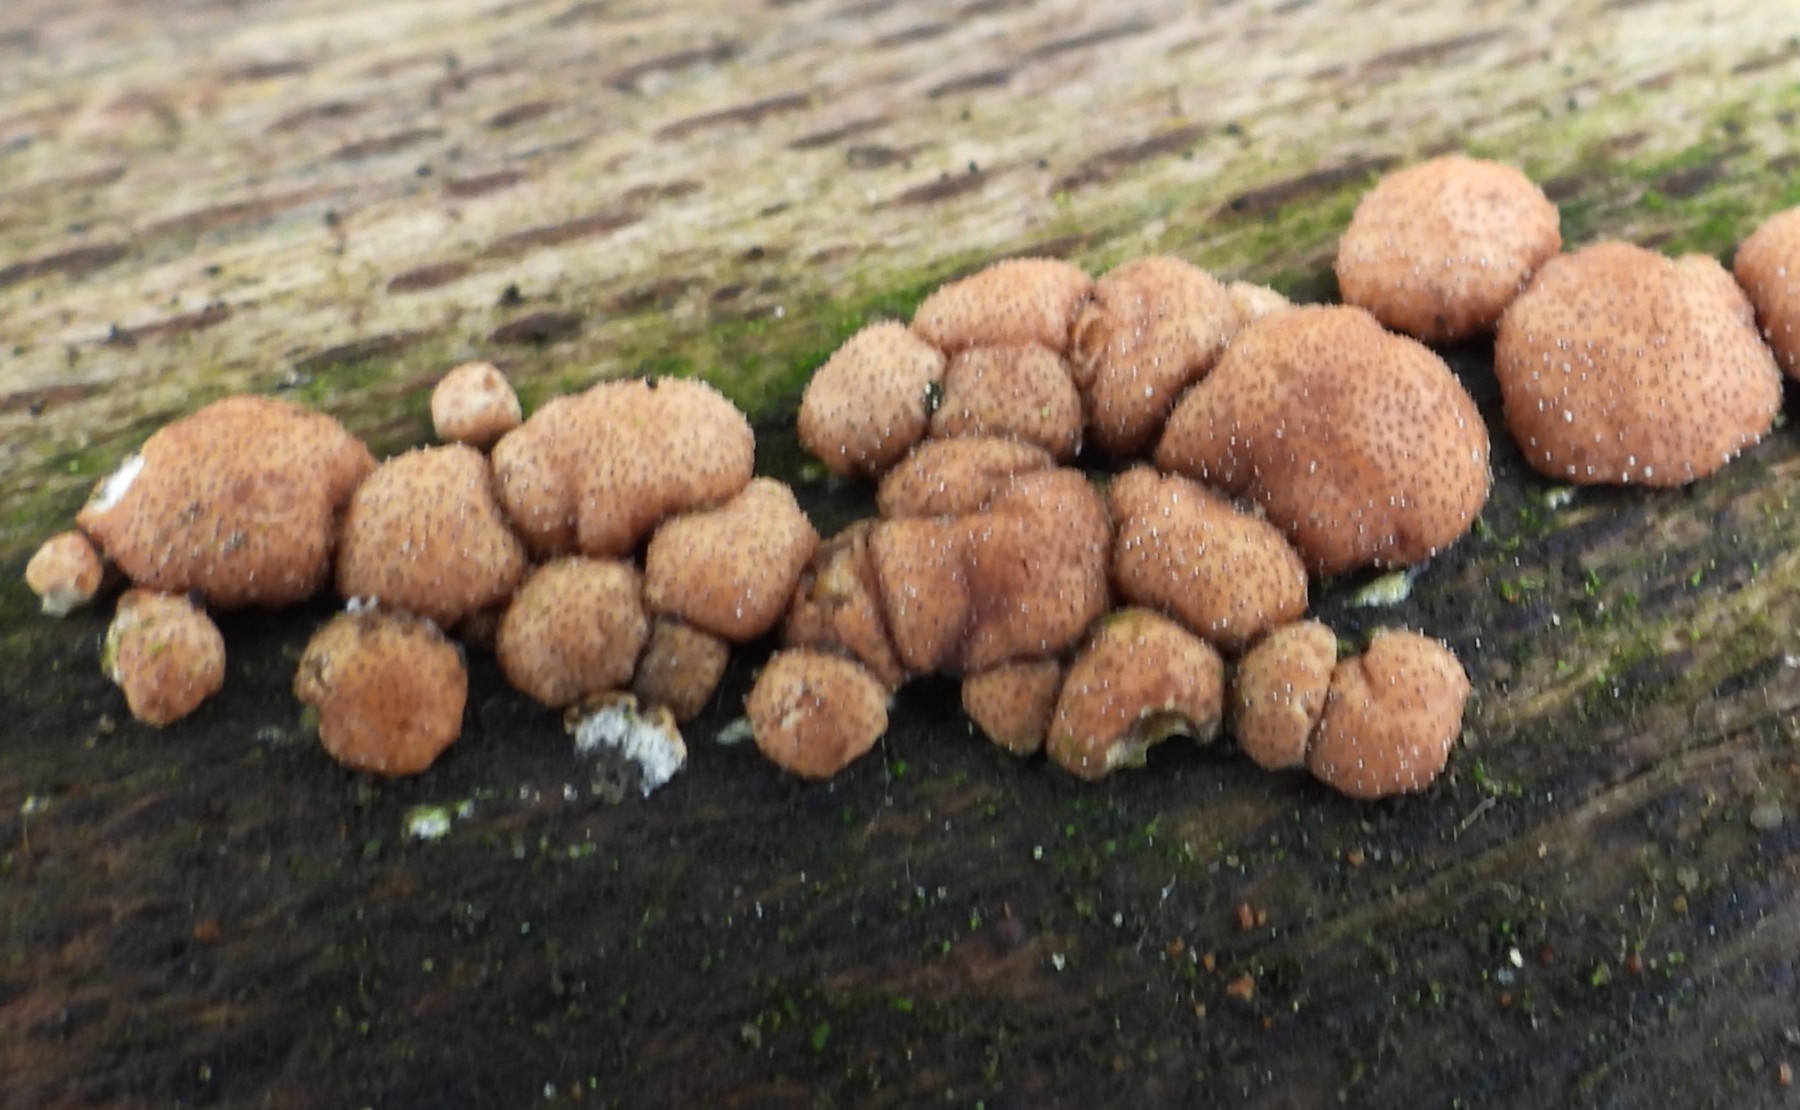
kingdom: Fungi
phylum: Ascomycota
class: Sordariomycetes
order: Hypocreales
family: Hypocreaceae
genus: Trichoderma
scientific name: Trichoderma europaeum
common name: rosabrun kødkerne
